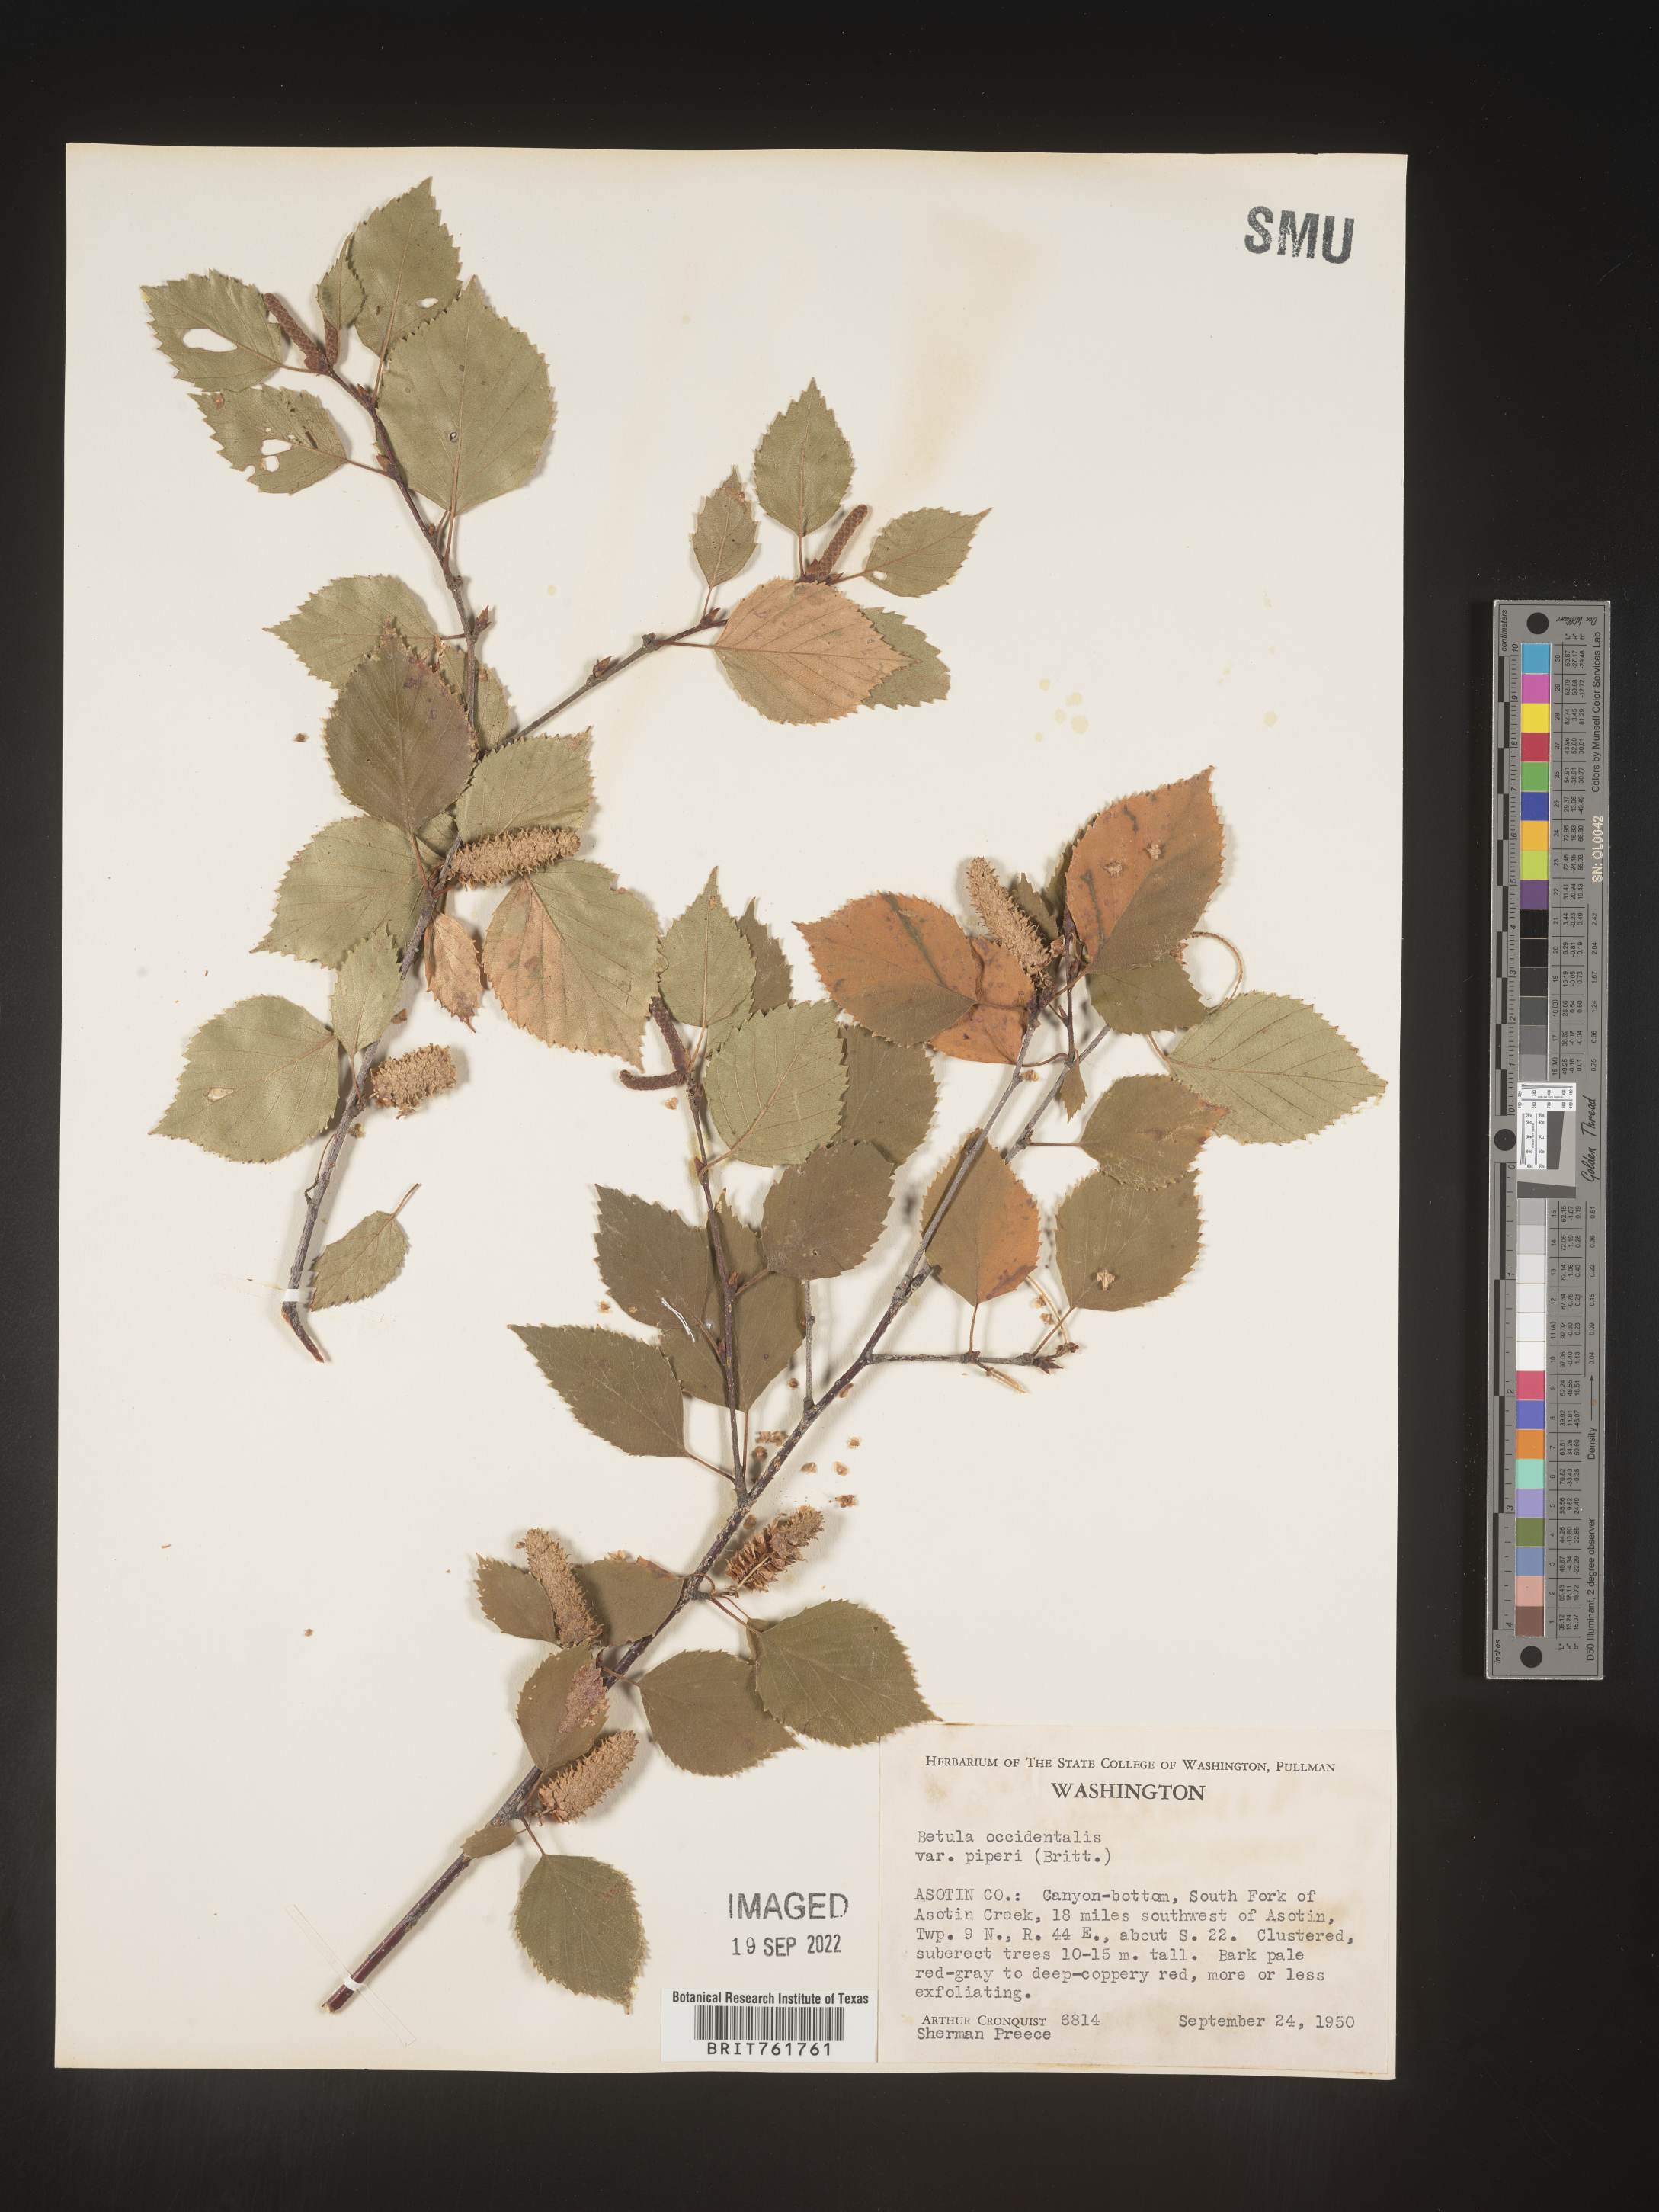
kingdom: Plantae
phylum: Tracheophyta
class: Magnoliopsida
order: Fagales
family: Betulaceae
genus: Betula
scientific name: Betula occidentalis
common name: River birch
